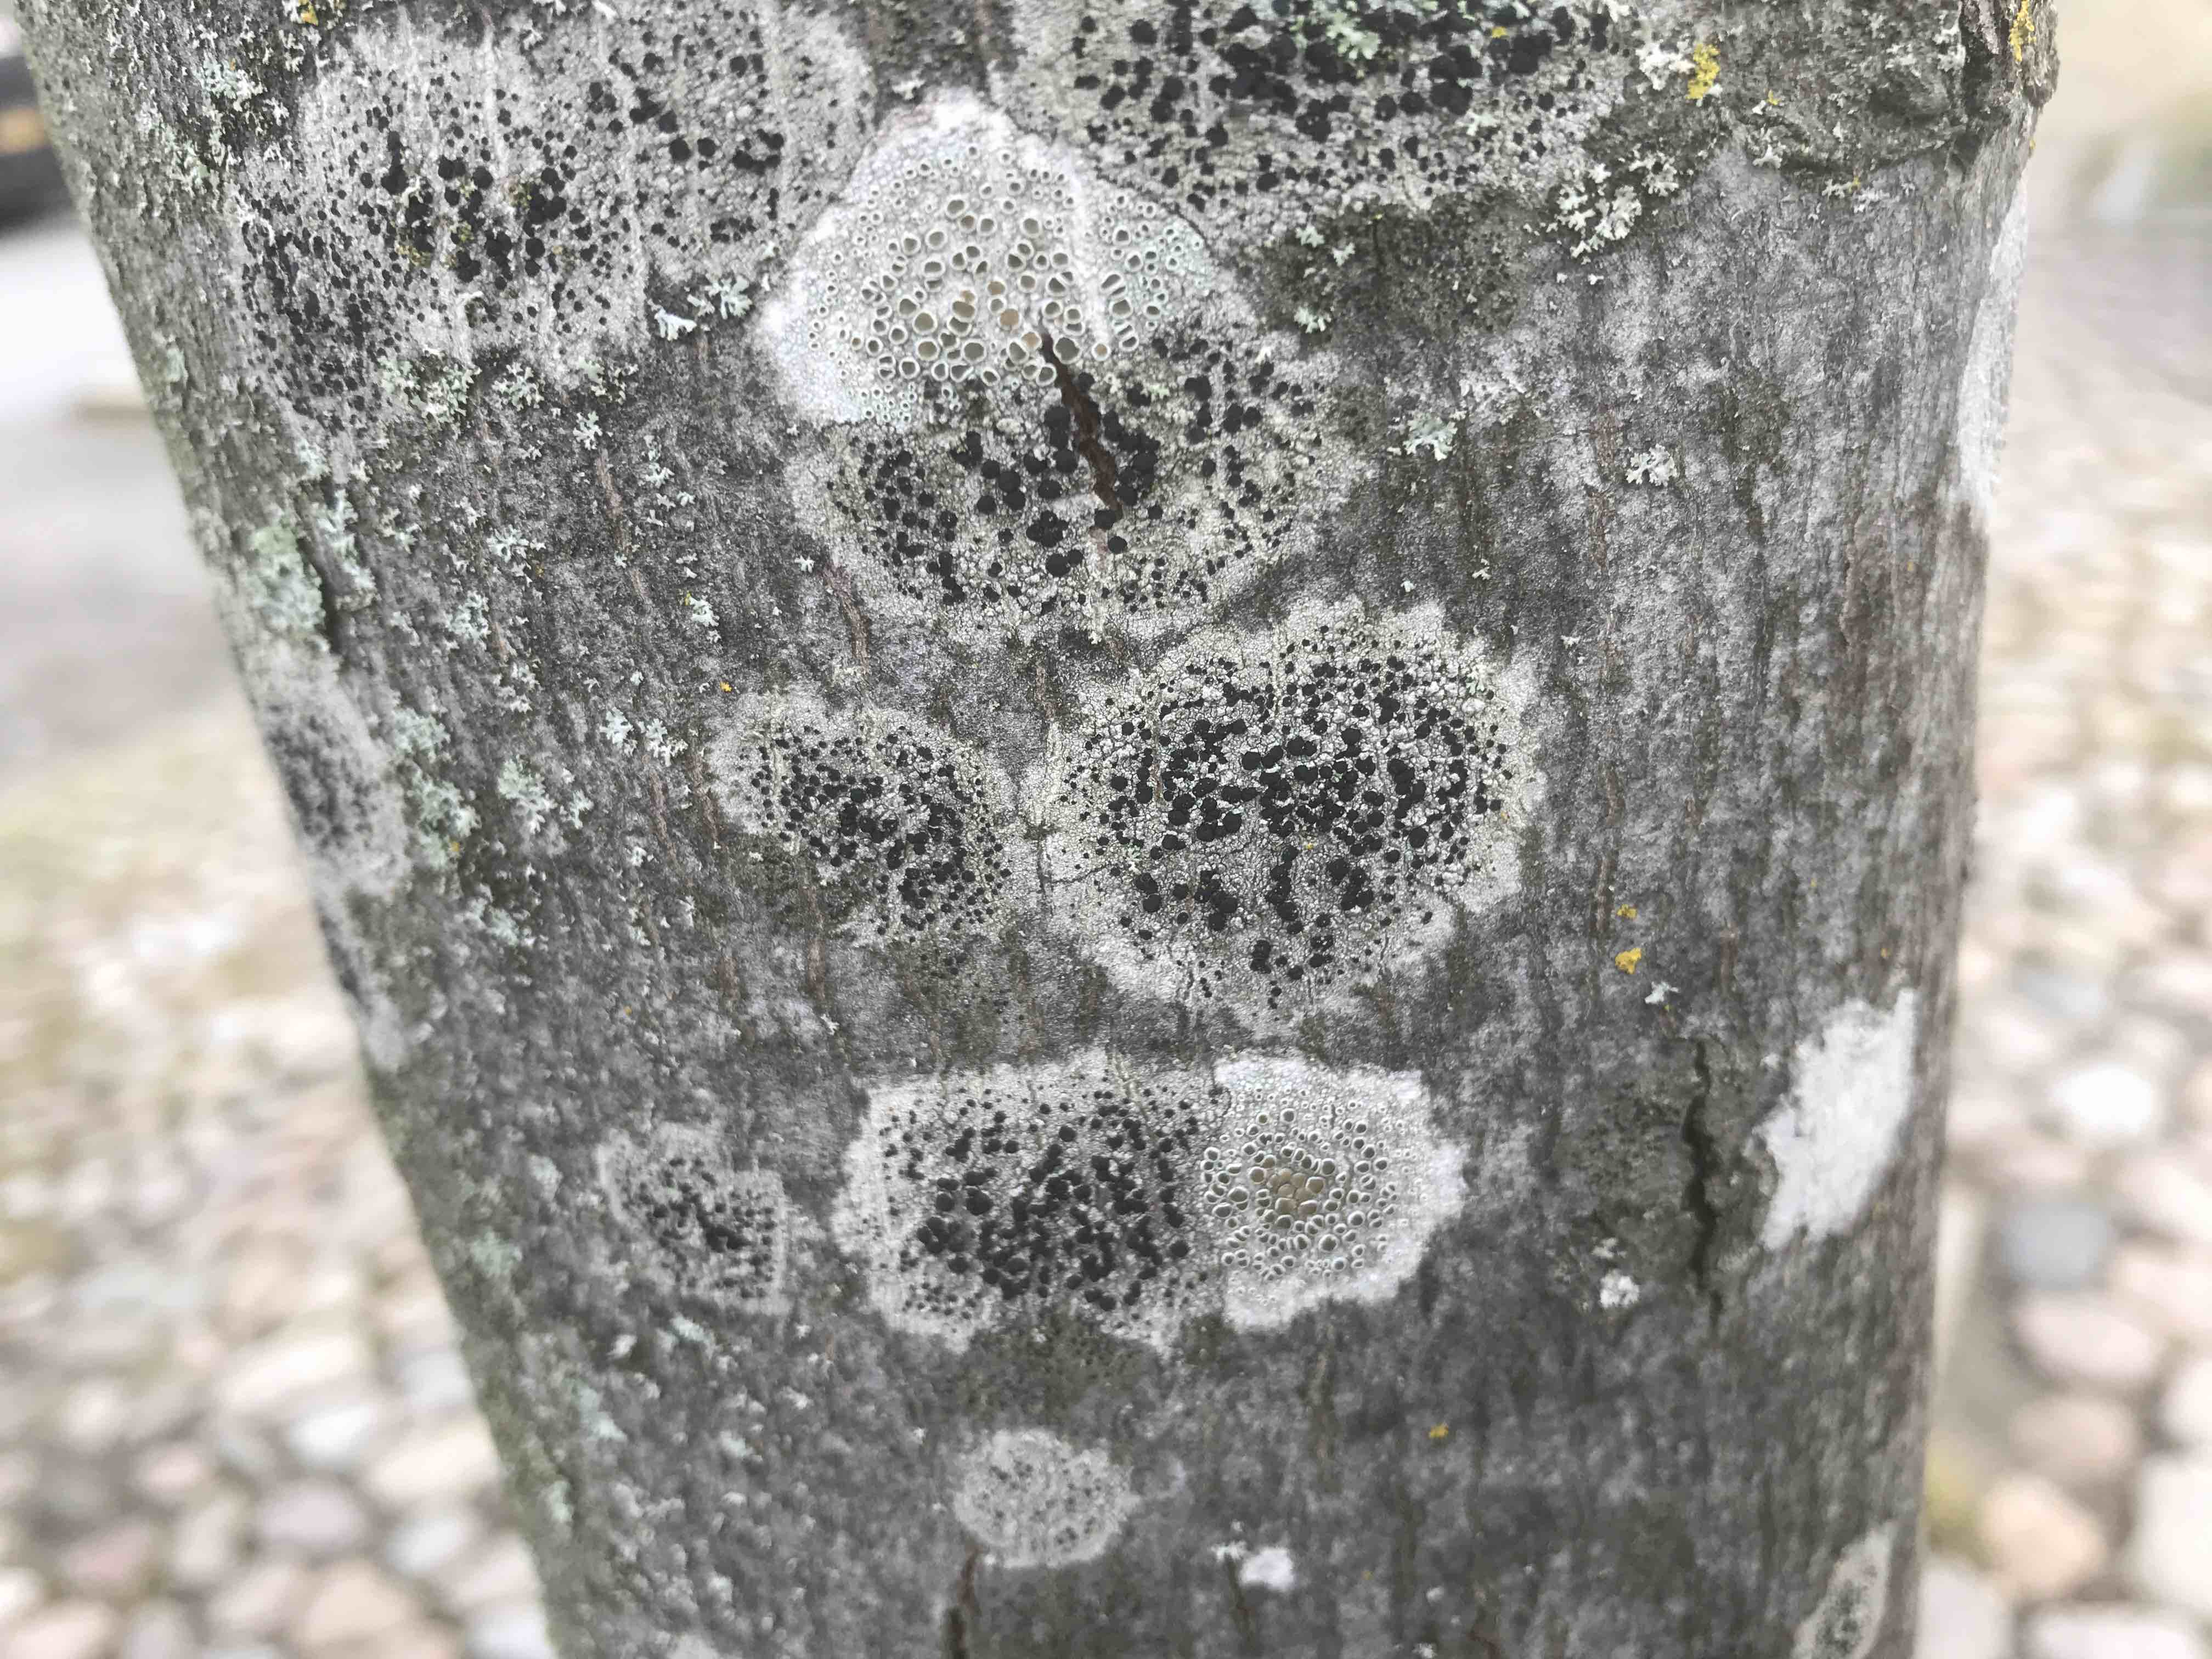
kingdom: Fungi
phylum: Ascomycota
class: Lecanoromycetes
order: Lecanorales
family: Lecanoraceae
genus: Lecidella
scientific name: Lecidella elaeochroma
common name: grågrøn skivelav
